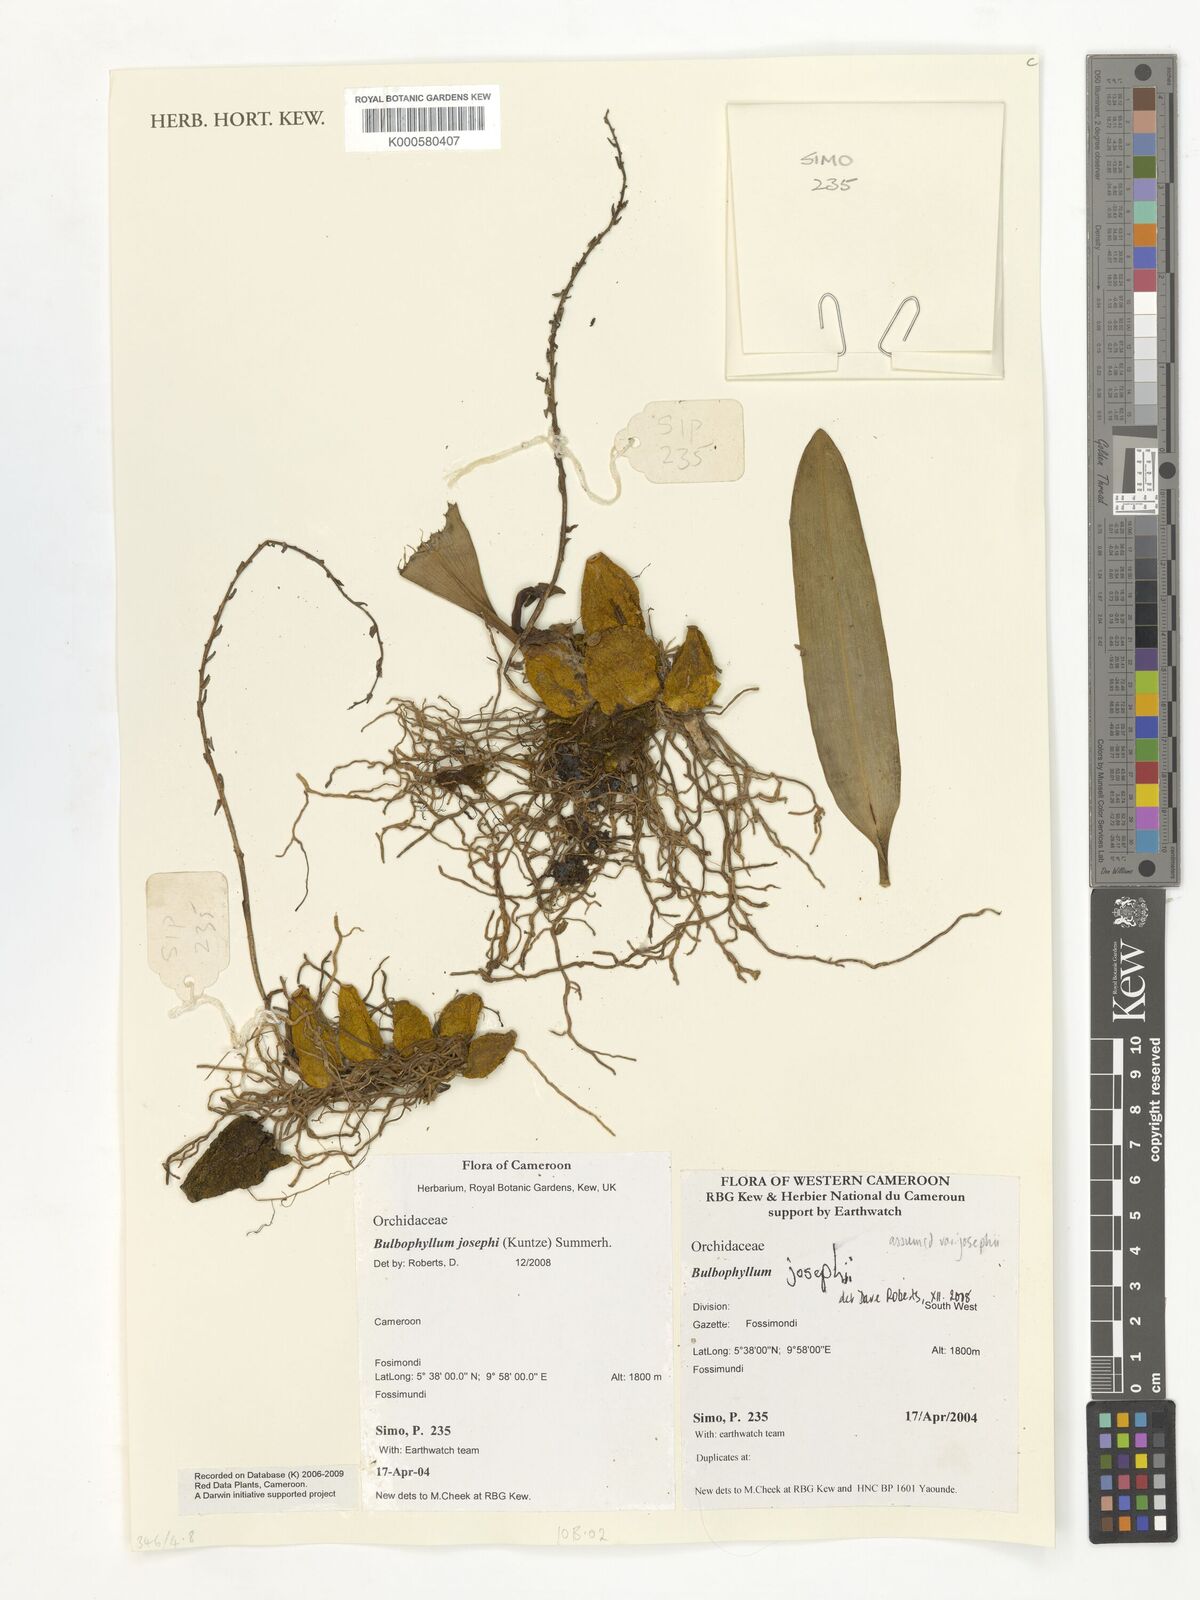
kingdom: Plantae
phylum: Tracheophyta
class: Liliopsida
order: Asparagales
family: Orchidaceae
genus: Bulbophyllum
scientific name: Bulbophyllum josephi
